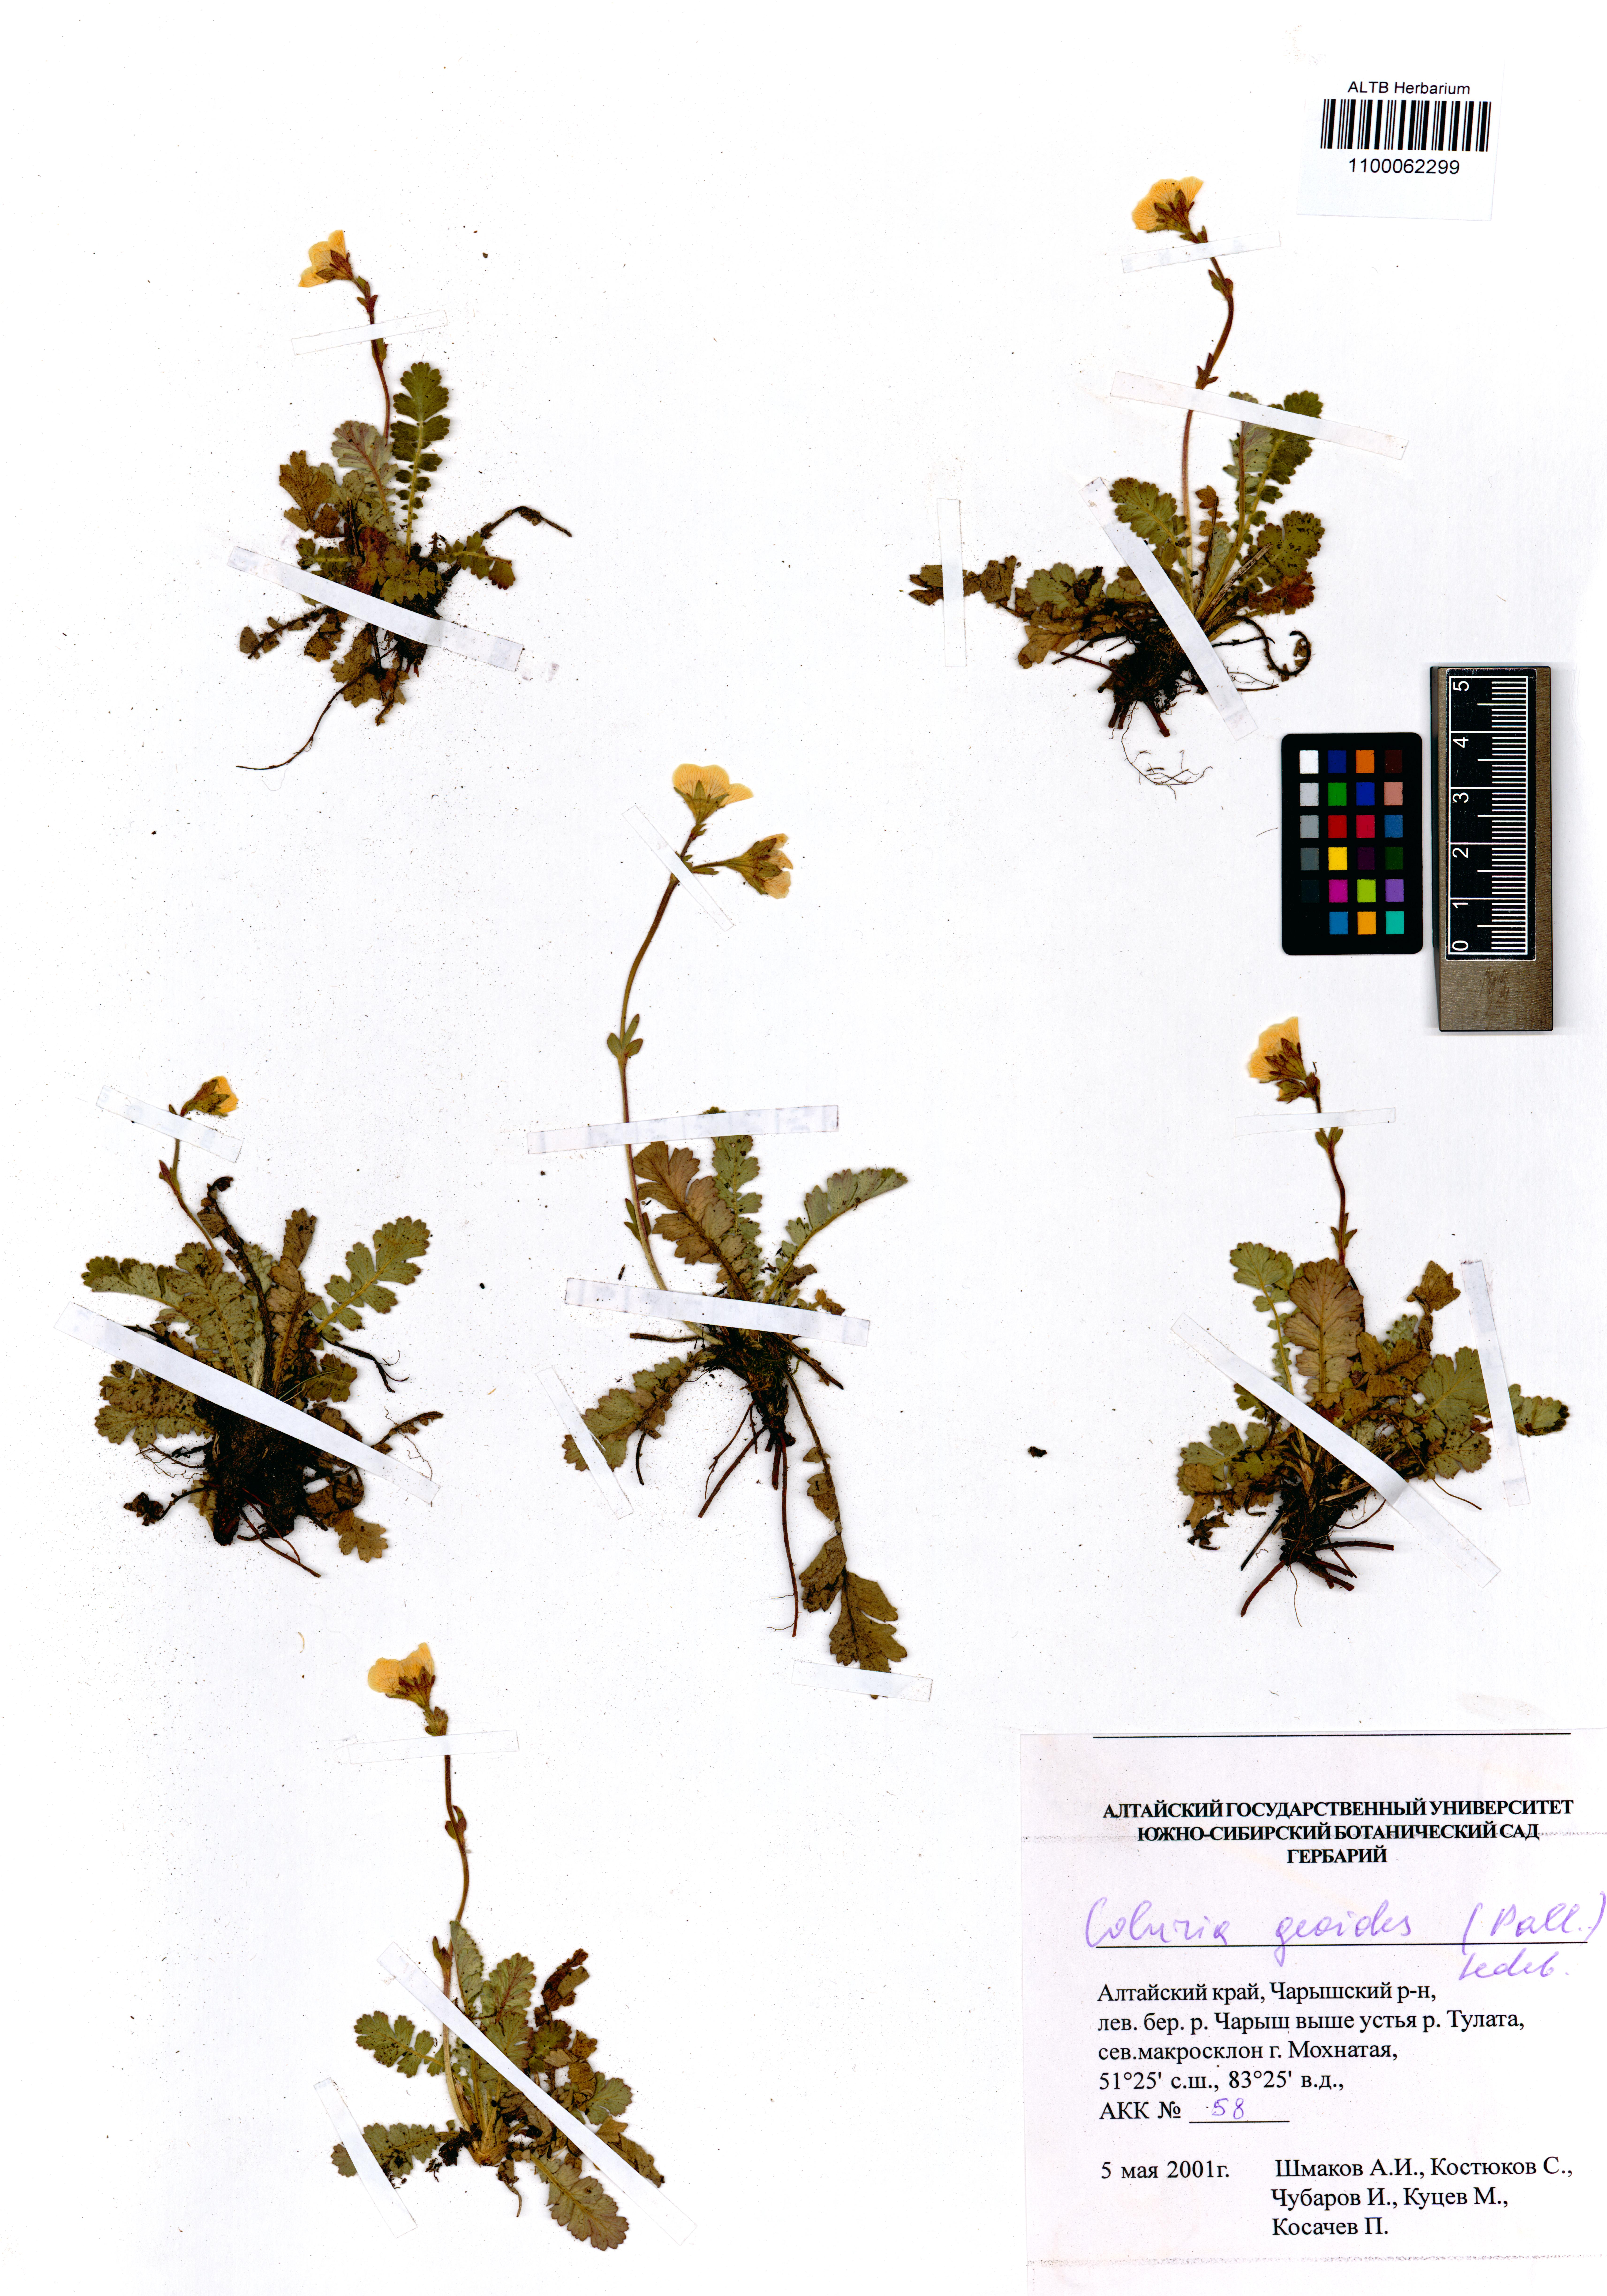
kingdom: Plantae
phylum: Tracheophyta
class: Magnoliopsida
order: Rosales
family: Rosaceae
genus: Geum
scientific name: Geum geoides
